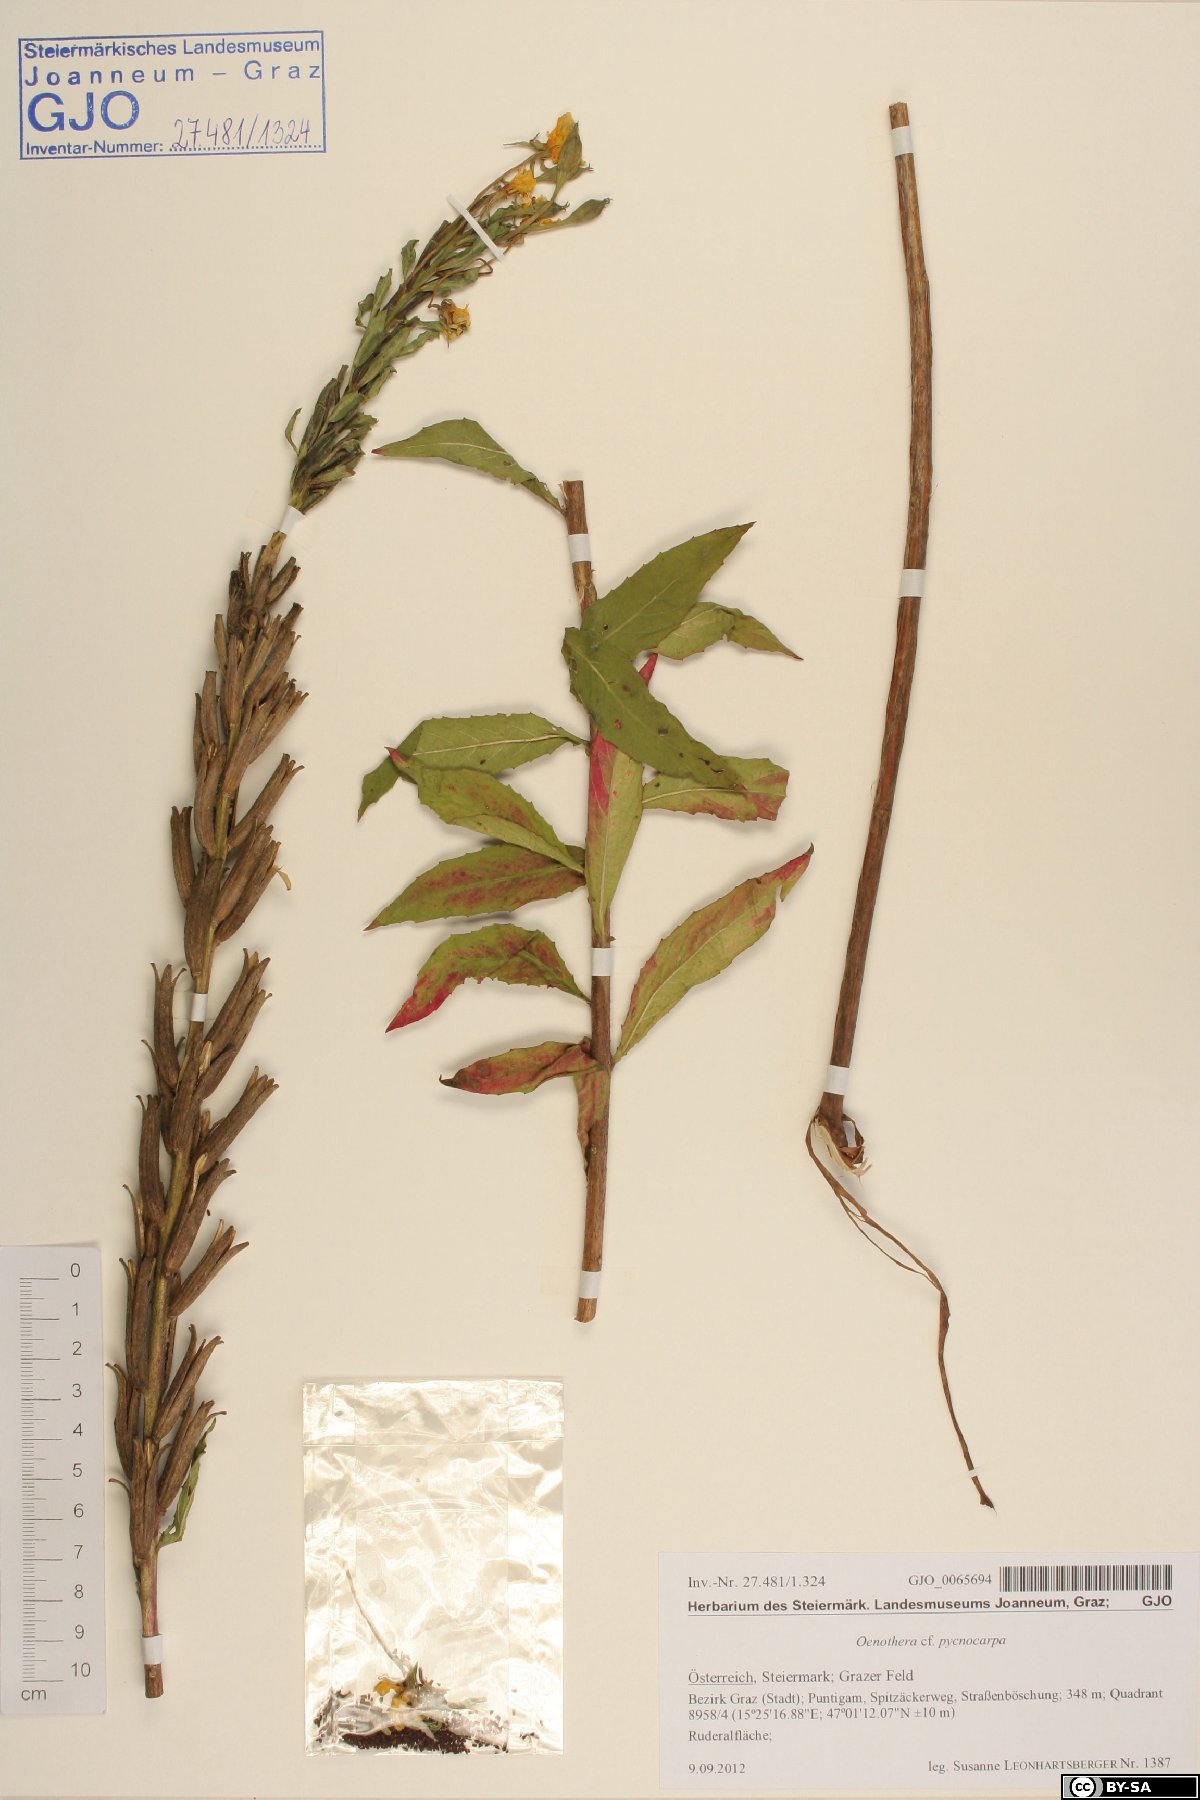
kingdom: Plantae
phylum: Tracheophyta
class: Magnoliopsida
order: Myrtales
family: Onagraceae
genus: Oenothera
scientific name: Oenothera biennis
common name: Common evening-primrose
